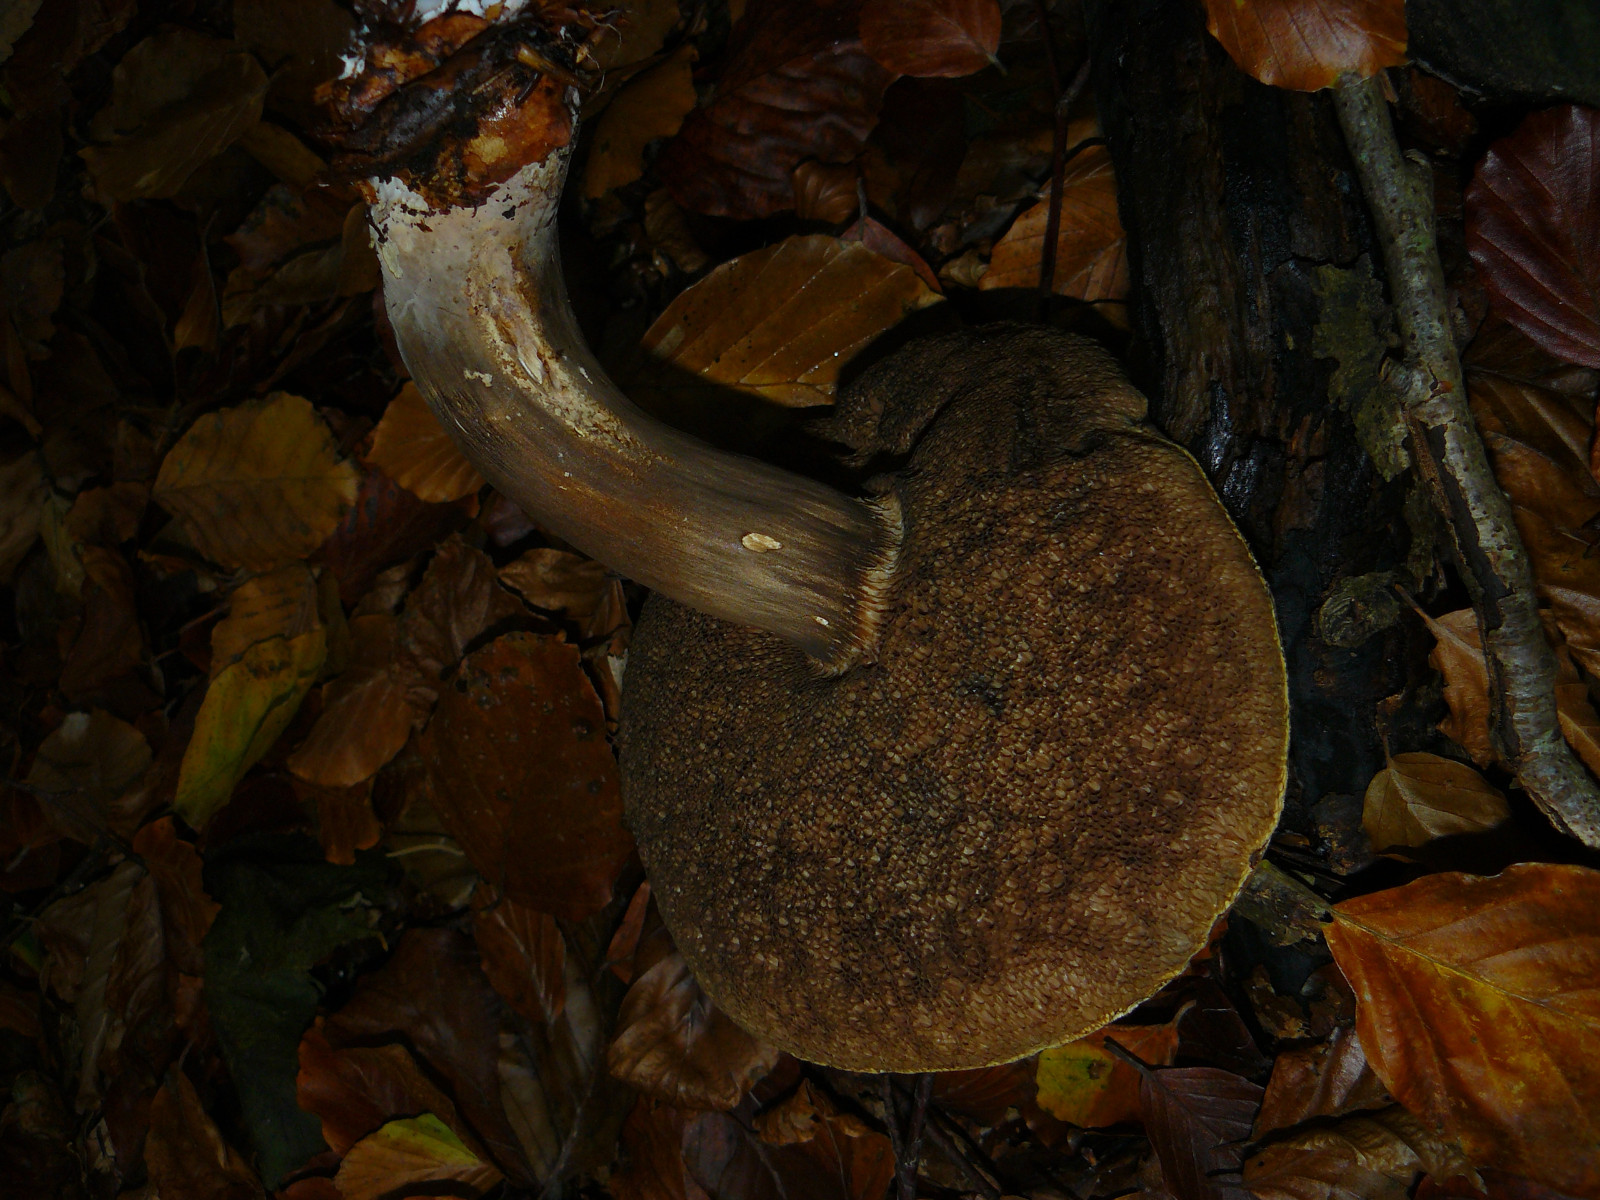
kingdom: Fungi
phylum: Basidiomycota
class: Agaricomycetes
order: Boletales
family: Boletaceae
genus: Porphyrellus
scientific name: Porphyrellus porphyrosporus
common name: sodrørhat
